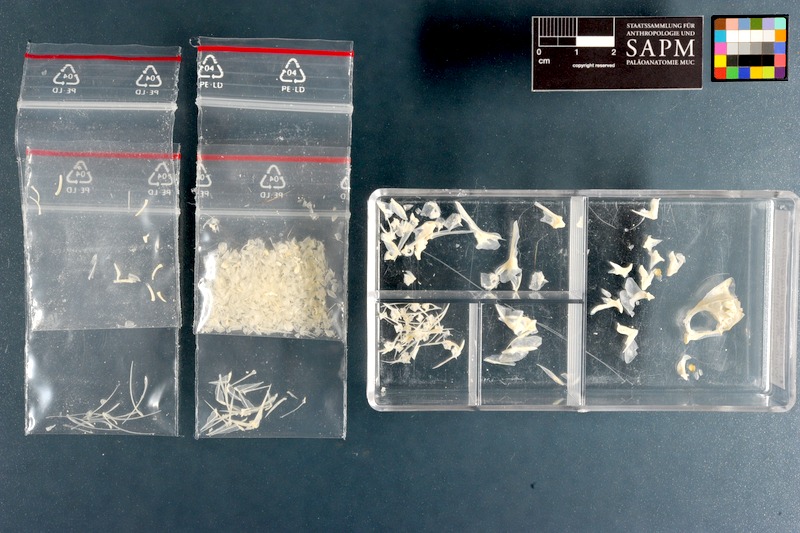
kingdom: Animalia
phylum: Chordata
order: Perciformes
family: Sparidae
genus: Rhabdosargus
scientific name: Rhabdosargus globiceps
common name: White stumpnose
